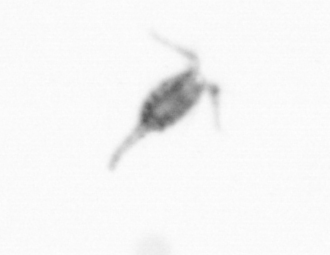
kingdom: Animalia
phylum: Arthropoda
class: Copepoda
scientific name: Copepoda
